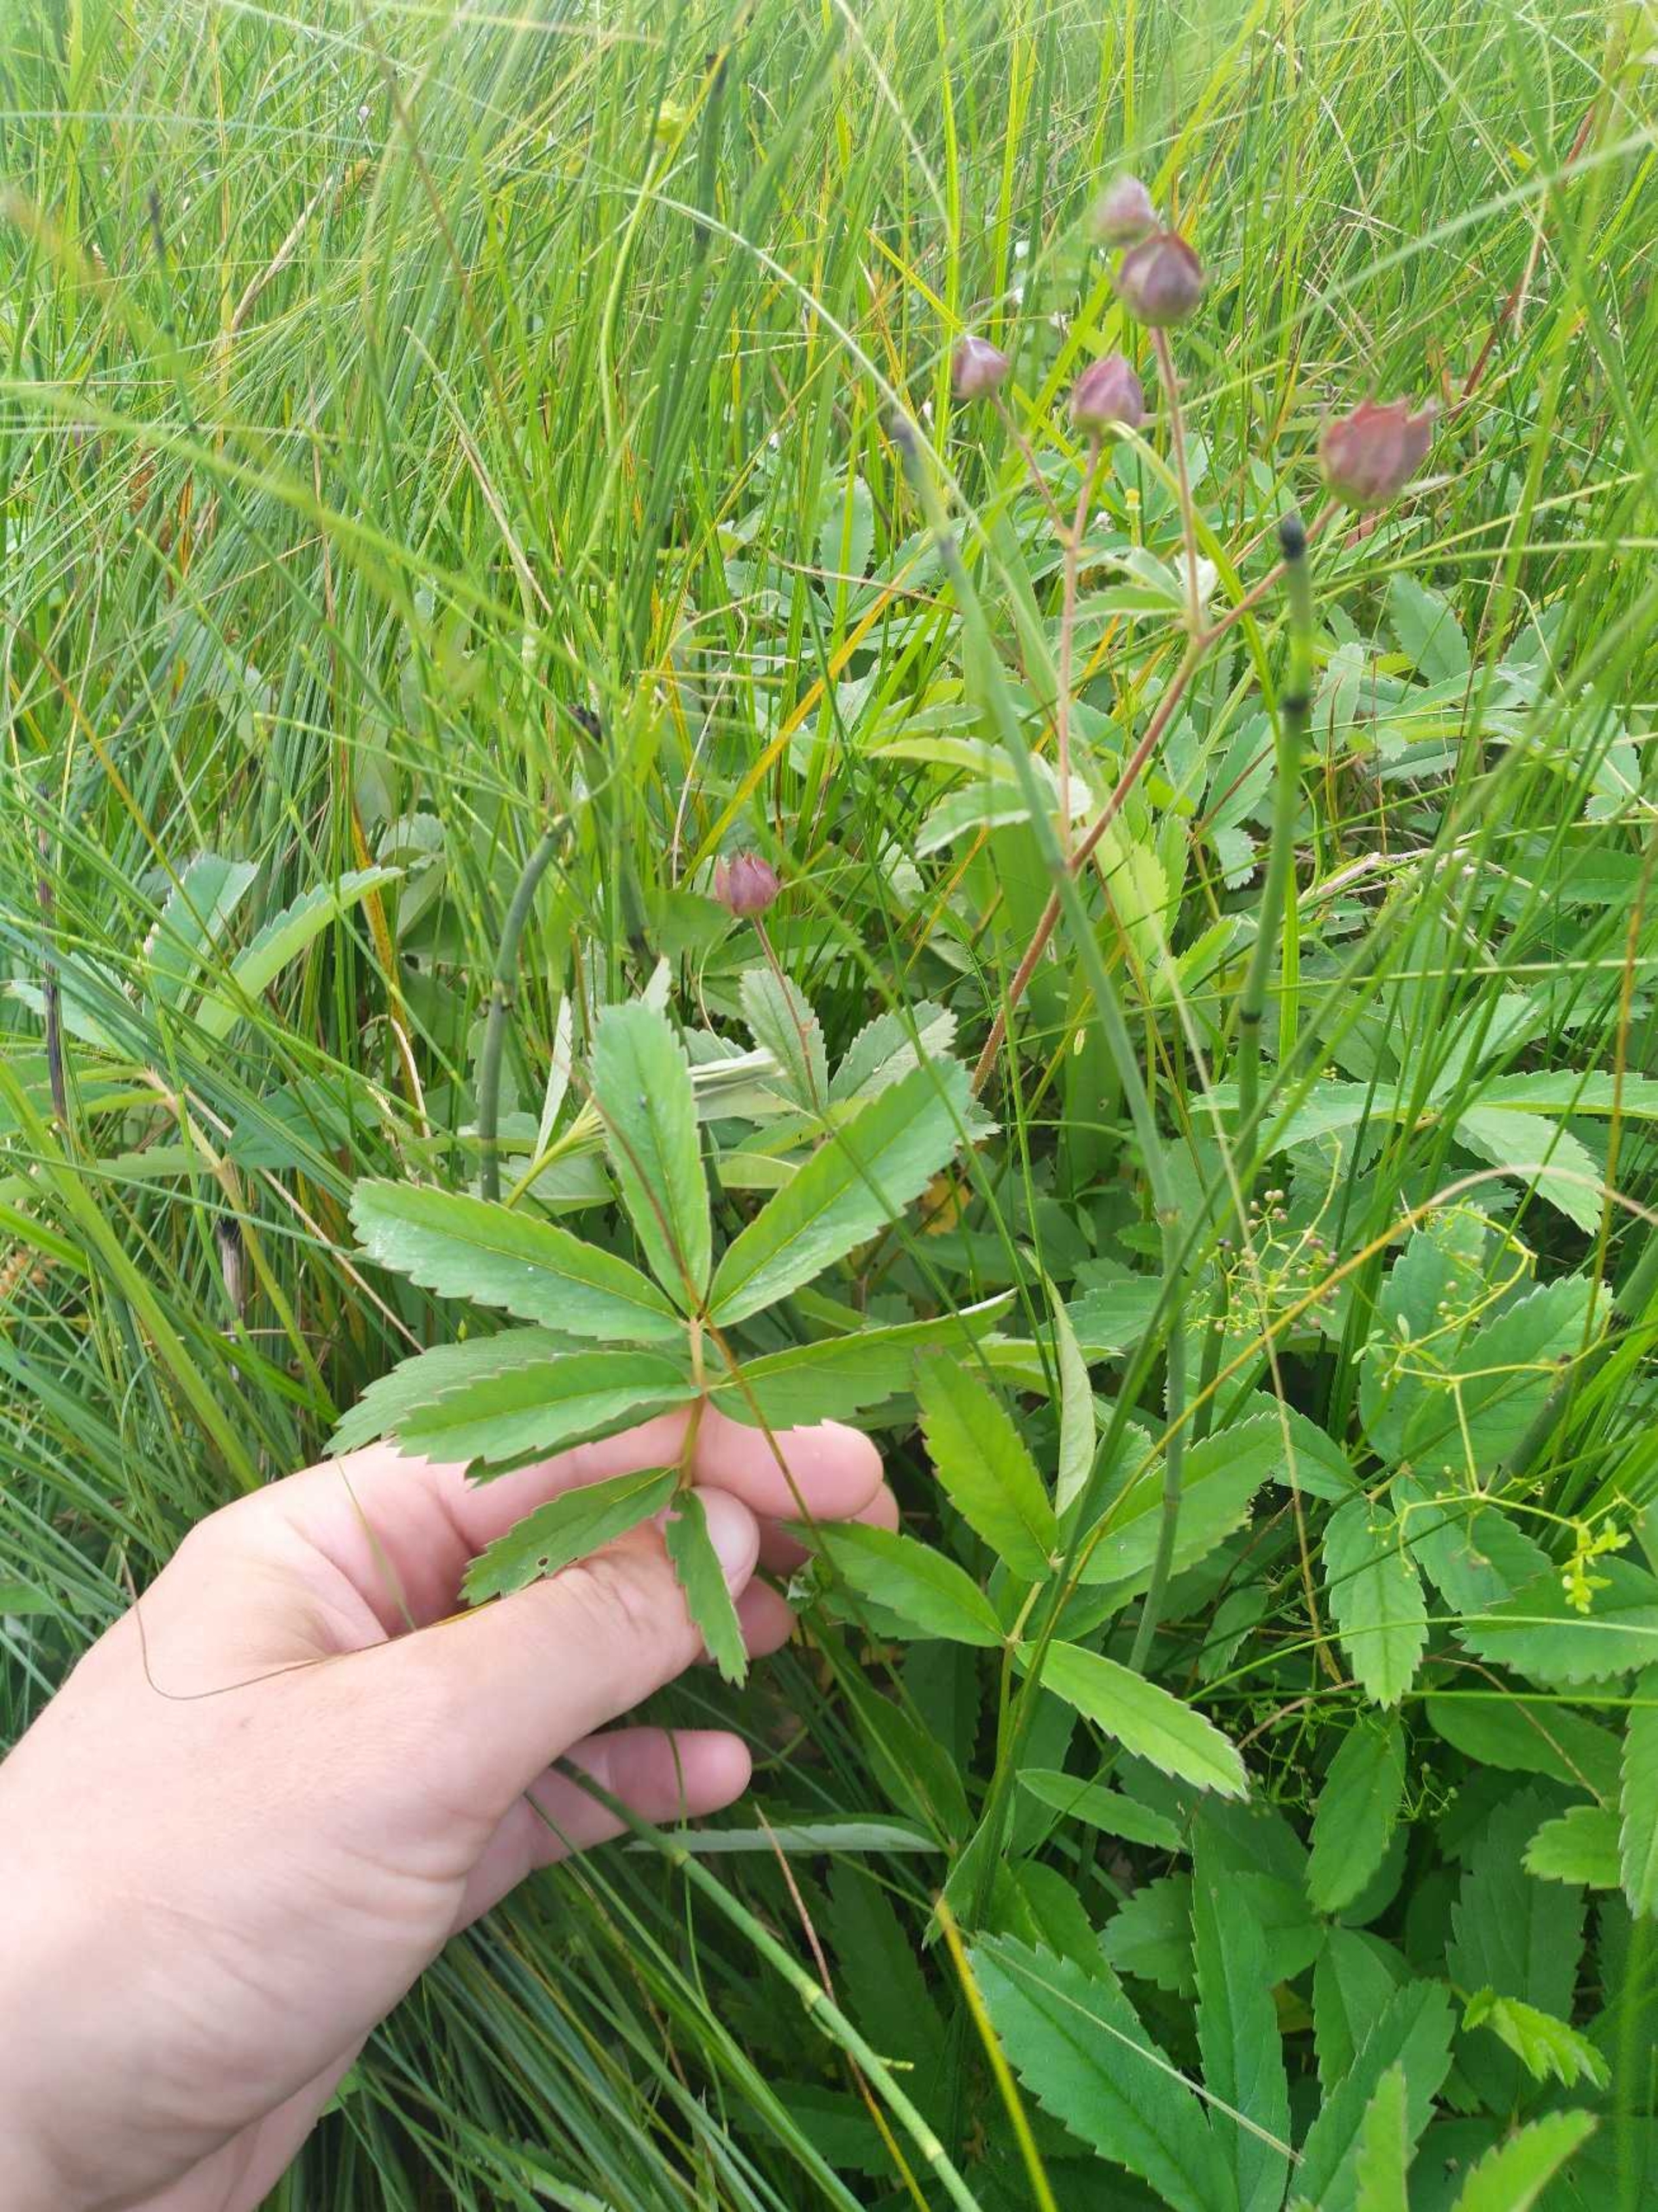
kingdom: Plantae
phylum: Tracheophyta
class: Magnoliopsida
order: Rosales
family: Rosaceae
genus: Comarum
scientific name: Comarum palustre
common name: Kragefod
